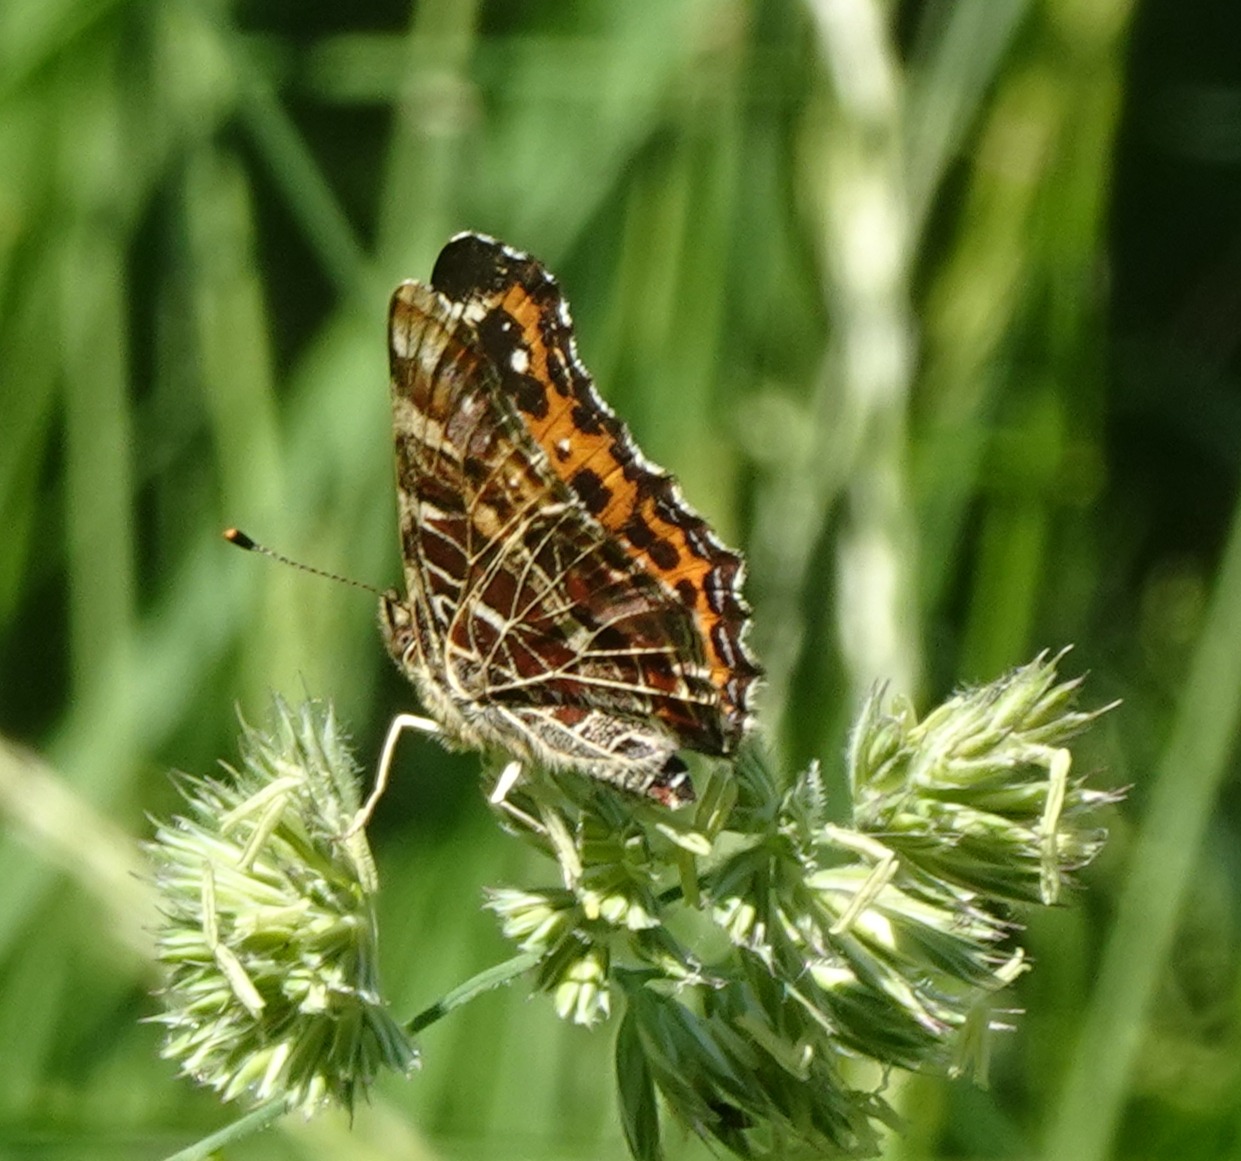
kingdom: Animalia
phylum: Arthropoda
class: Insecta
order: Lepidoptera
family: Nymphalidae
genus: Araschnia
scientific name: Araschnia levana
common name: Nældesommerfugl
